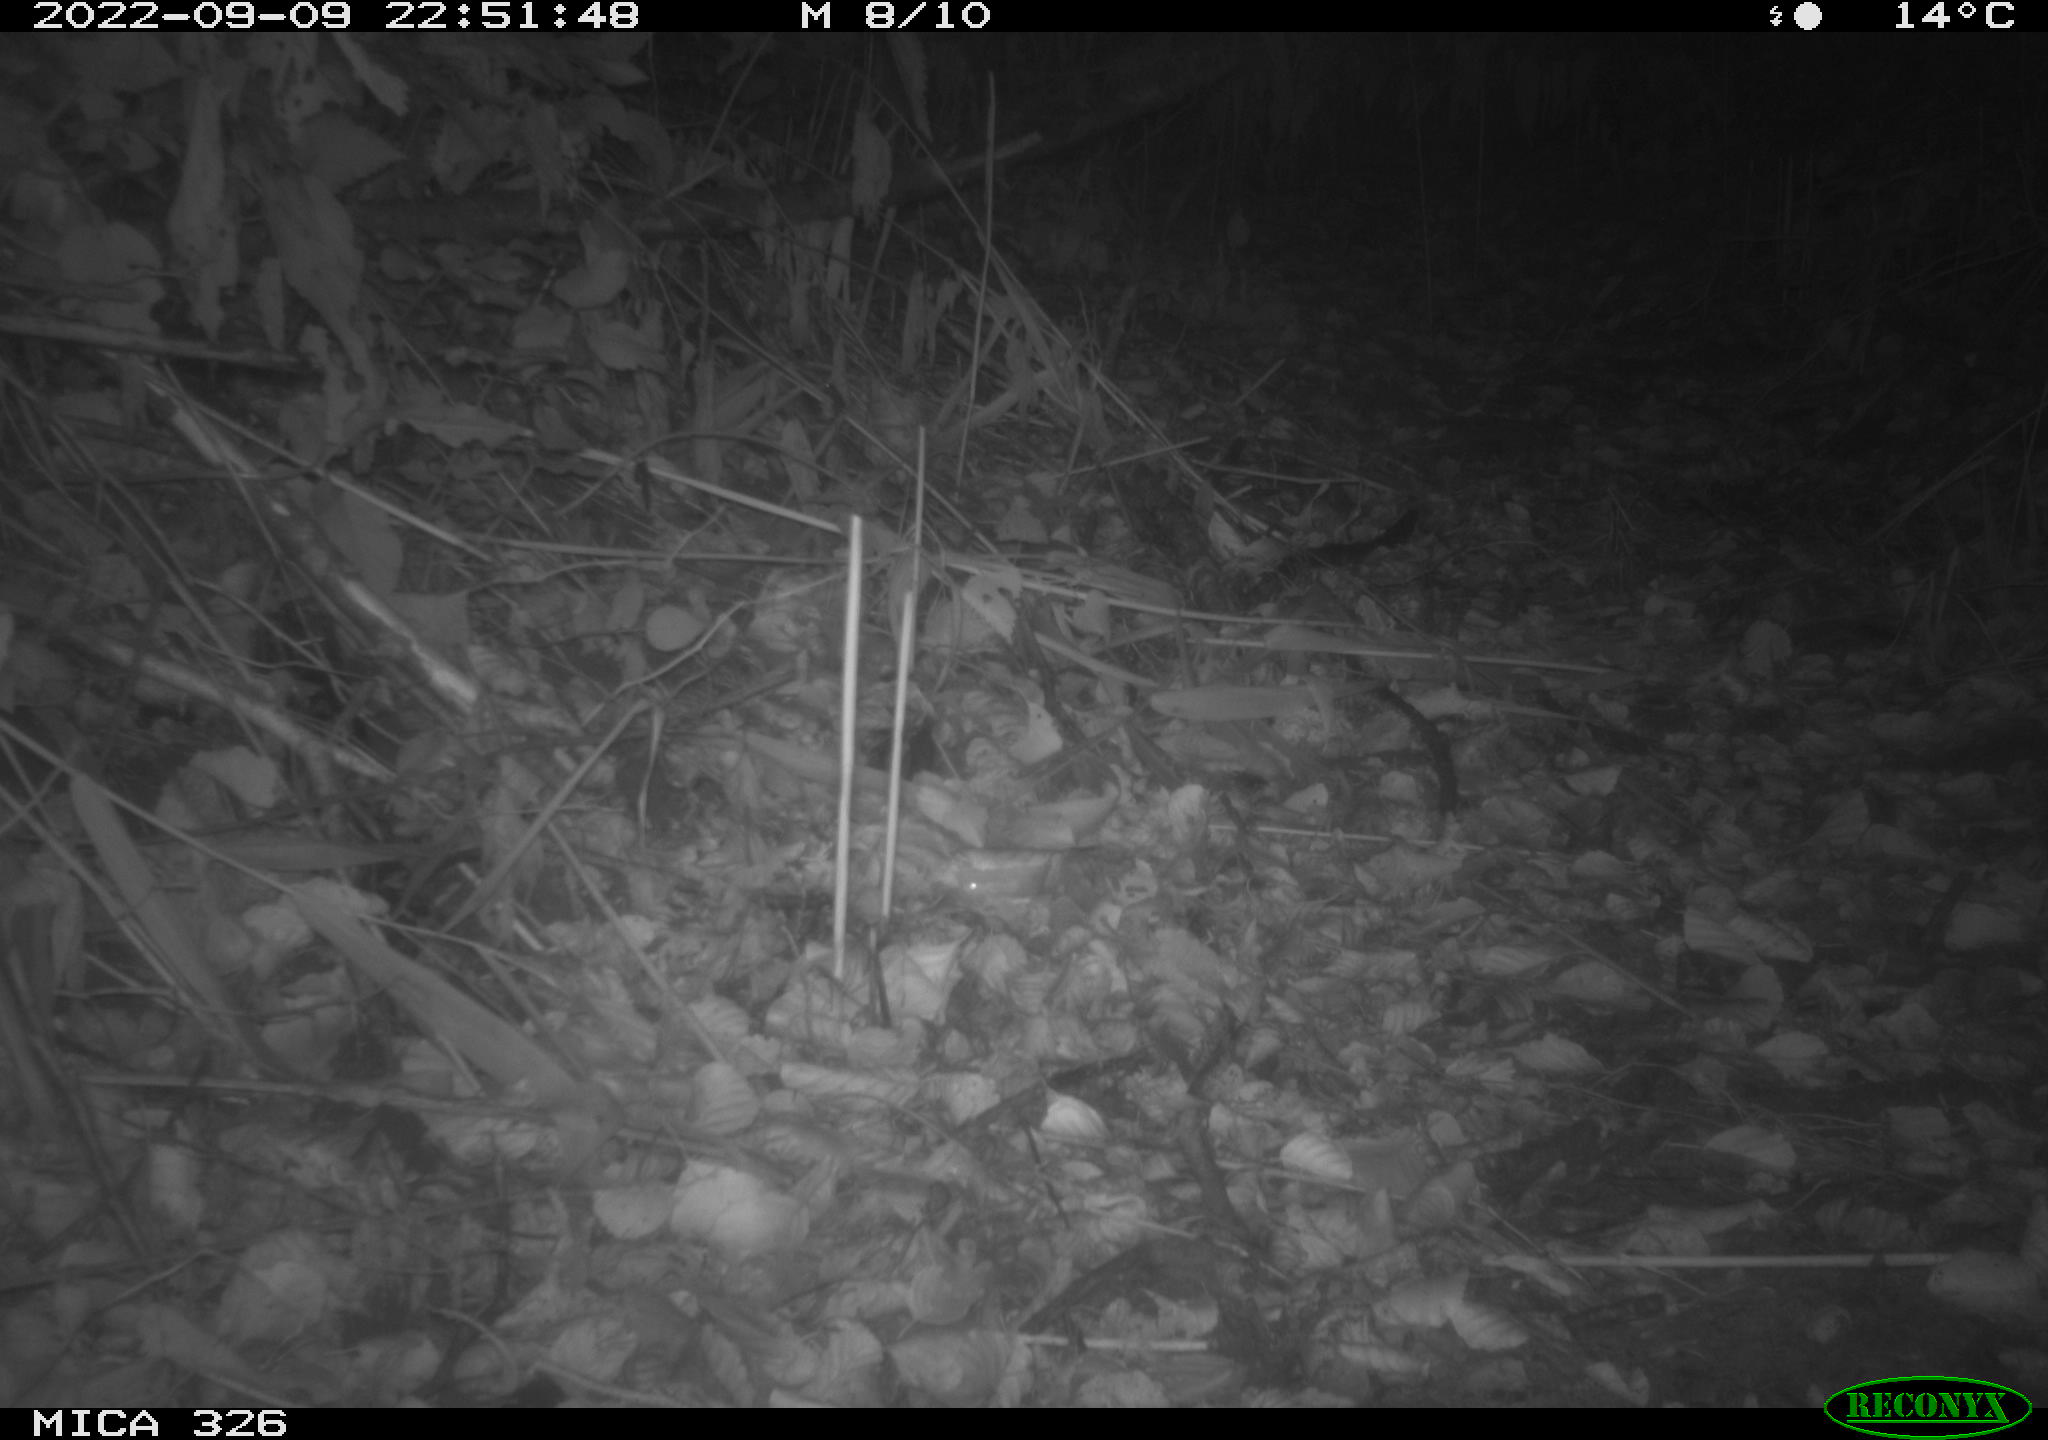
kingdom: Animalia
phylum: Chordata
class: Mammalia
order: Carnivora
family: Mustelidae
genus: Mustela
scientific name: Mustela erminea
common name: Stoat
